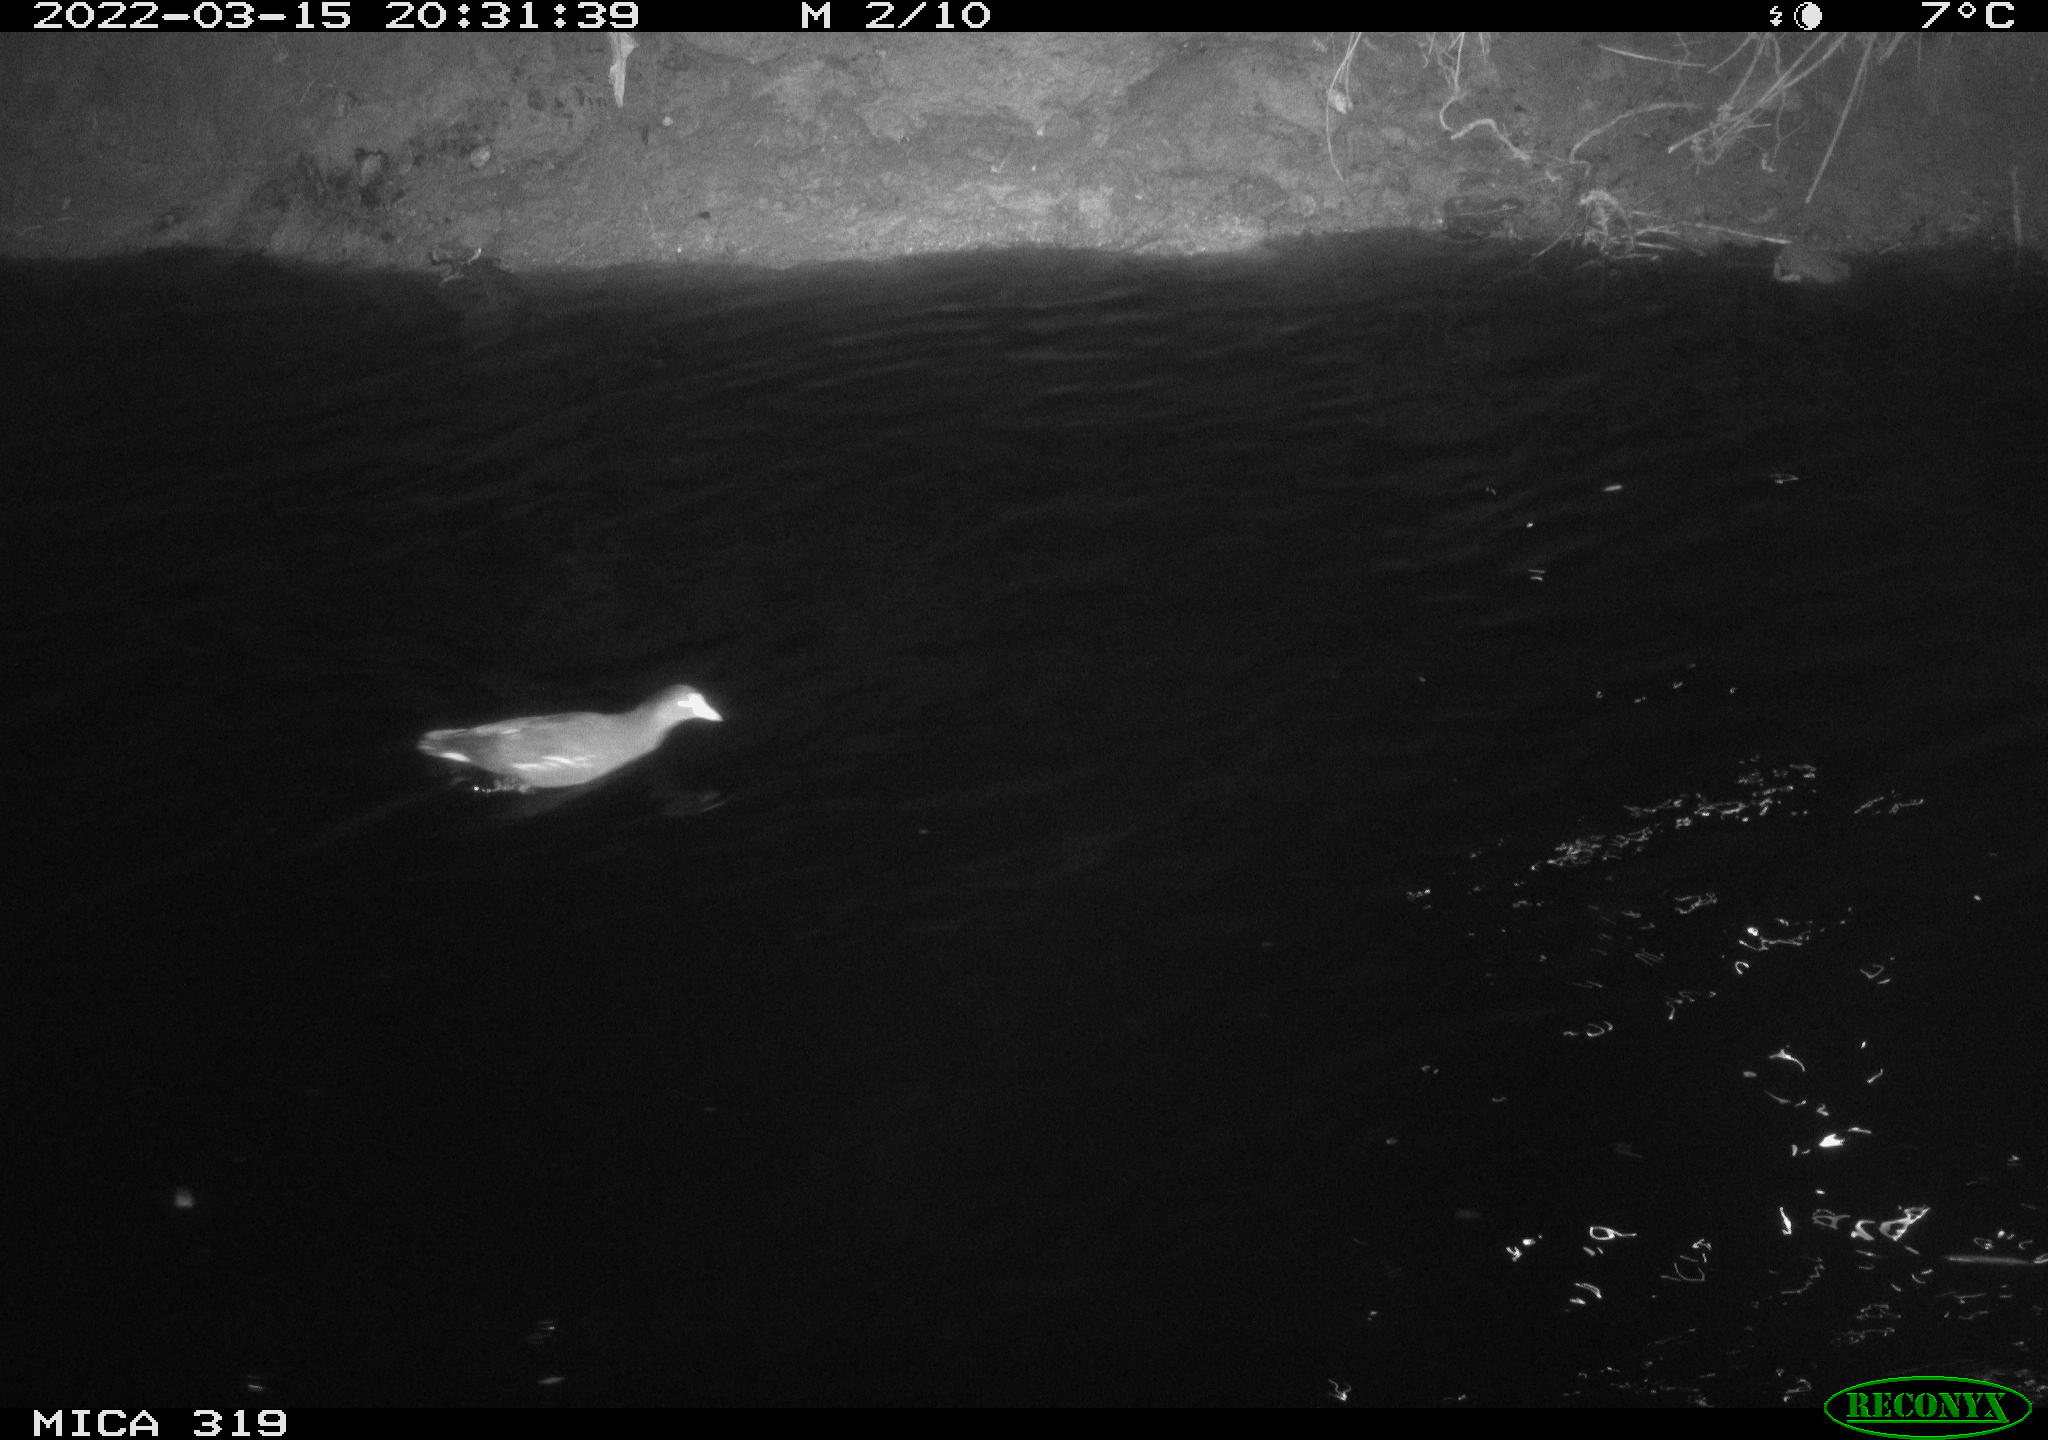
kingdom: Animalia
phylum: Chordata
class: Aves
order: Gruiformes
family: Rallidae
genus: Gallinula
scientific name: Gallinula chloropus
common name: Common moorhen
